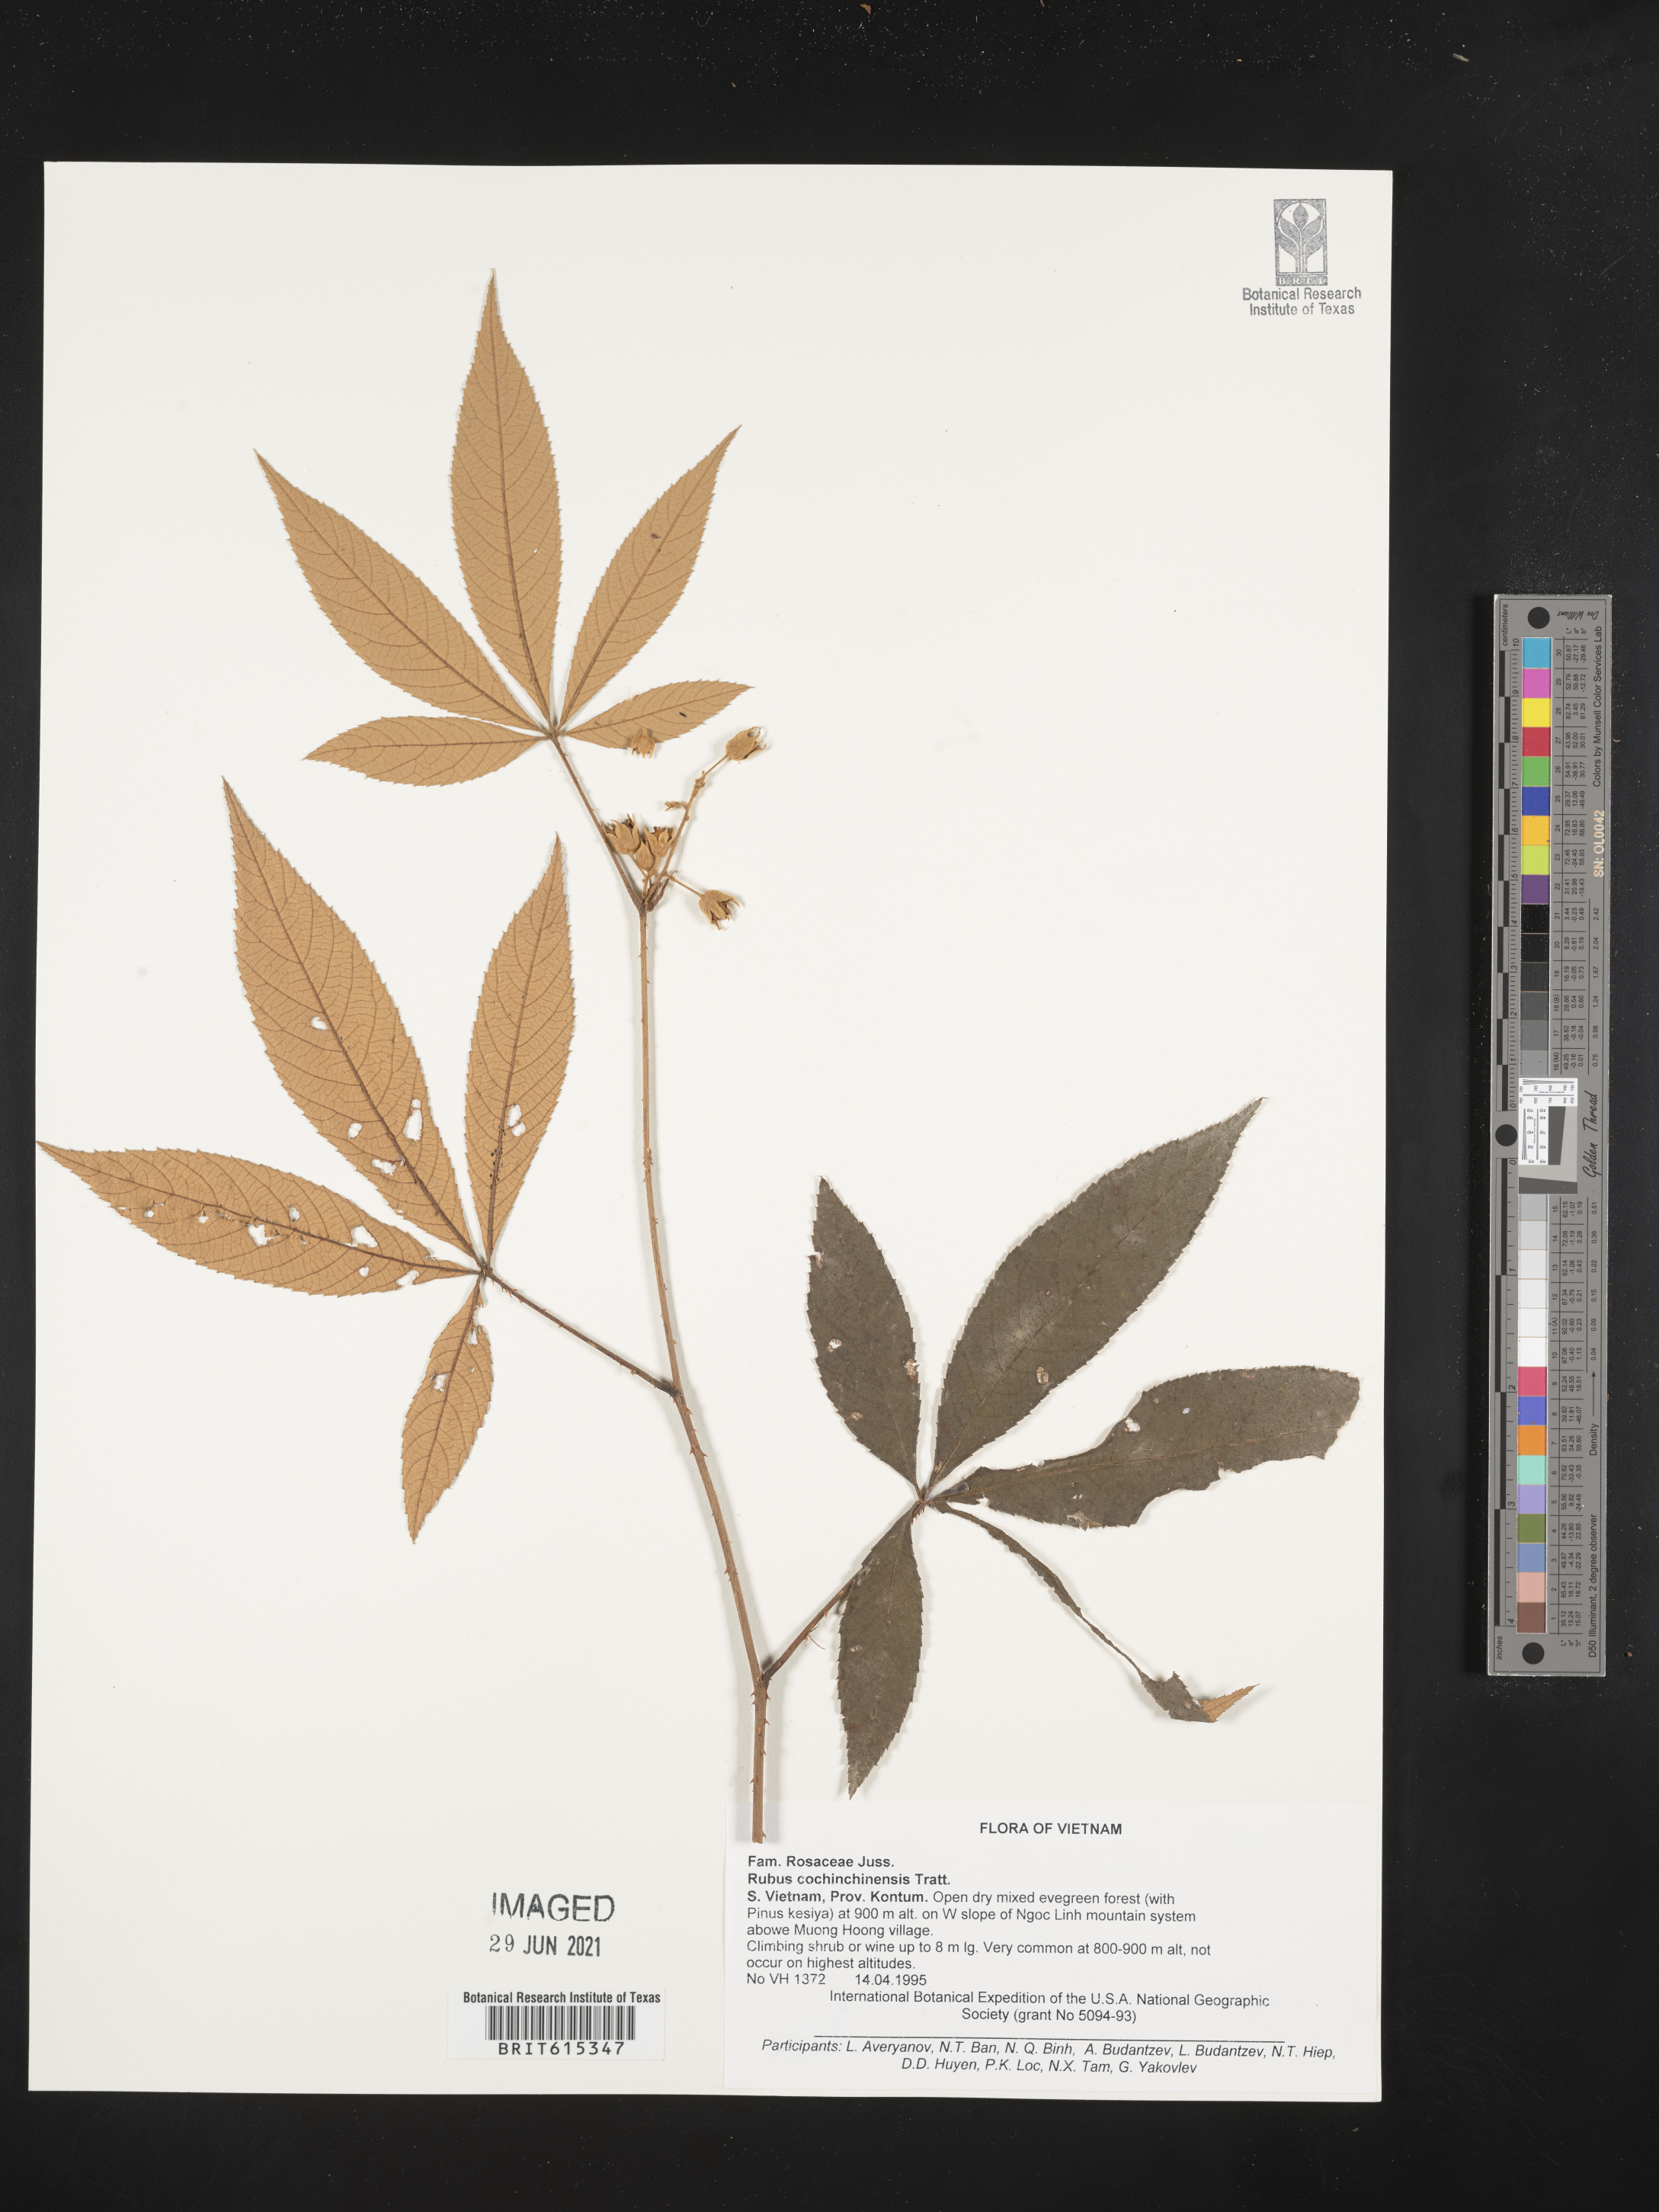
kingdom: Plantae
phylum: Tracheophyta
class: Magnoliopsida
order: Rosales
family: Rosaceae
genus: Rubus
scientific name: Rubus cochinchinensis
